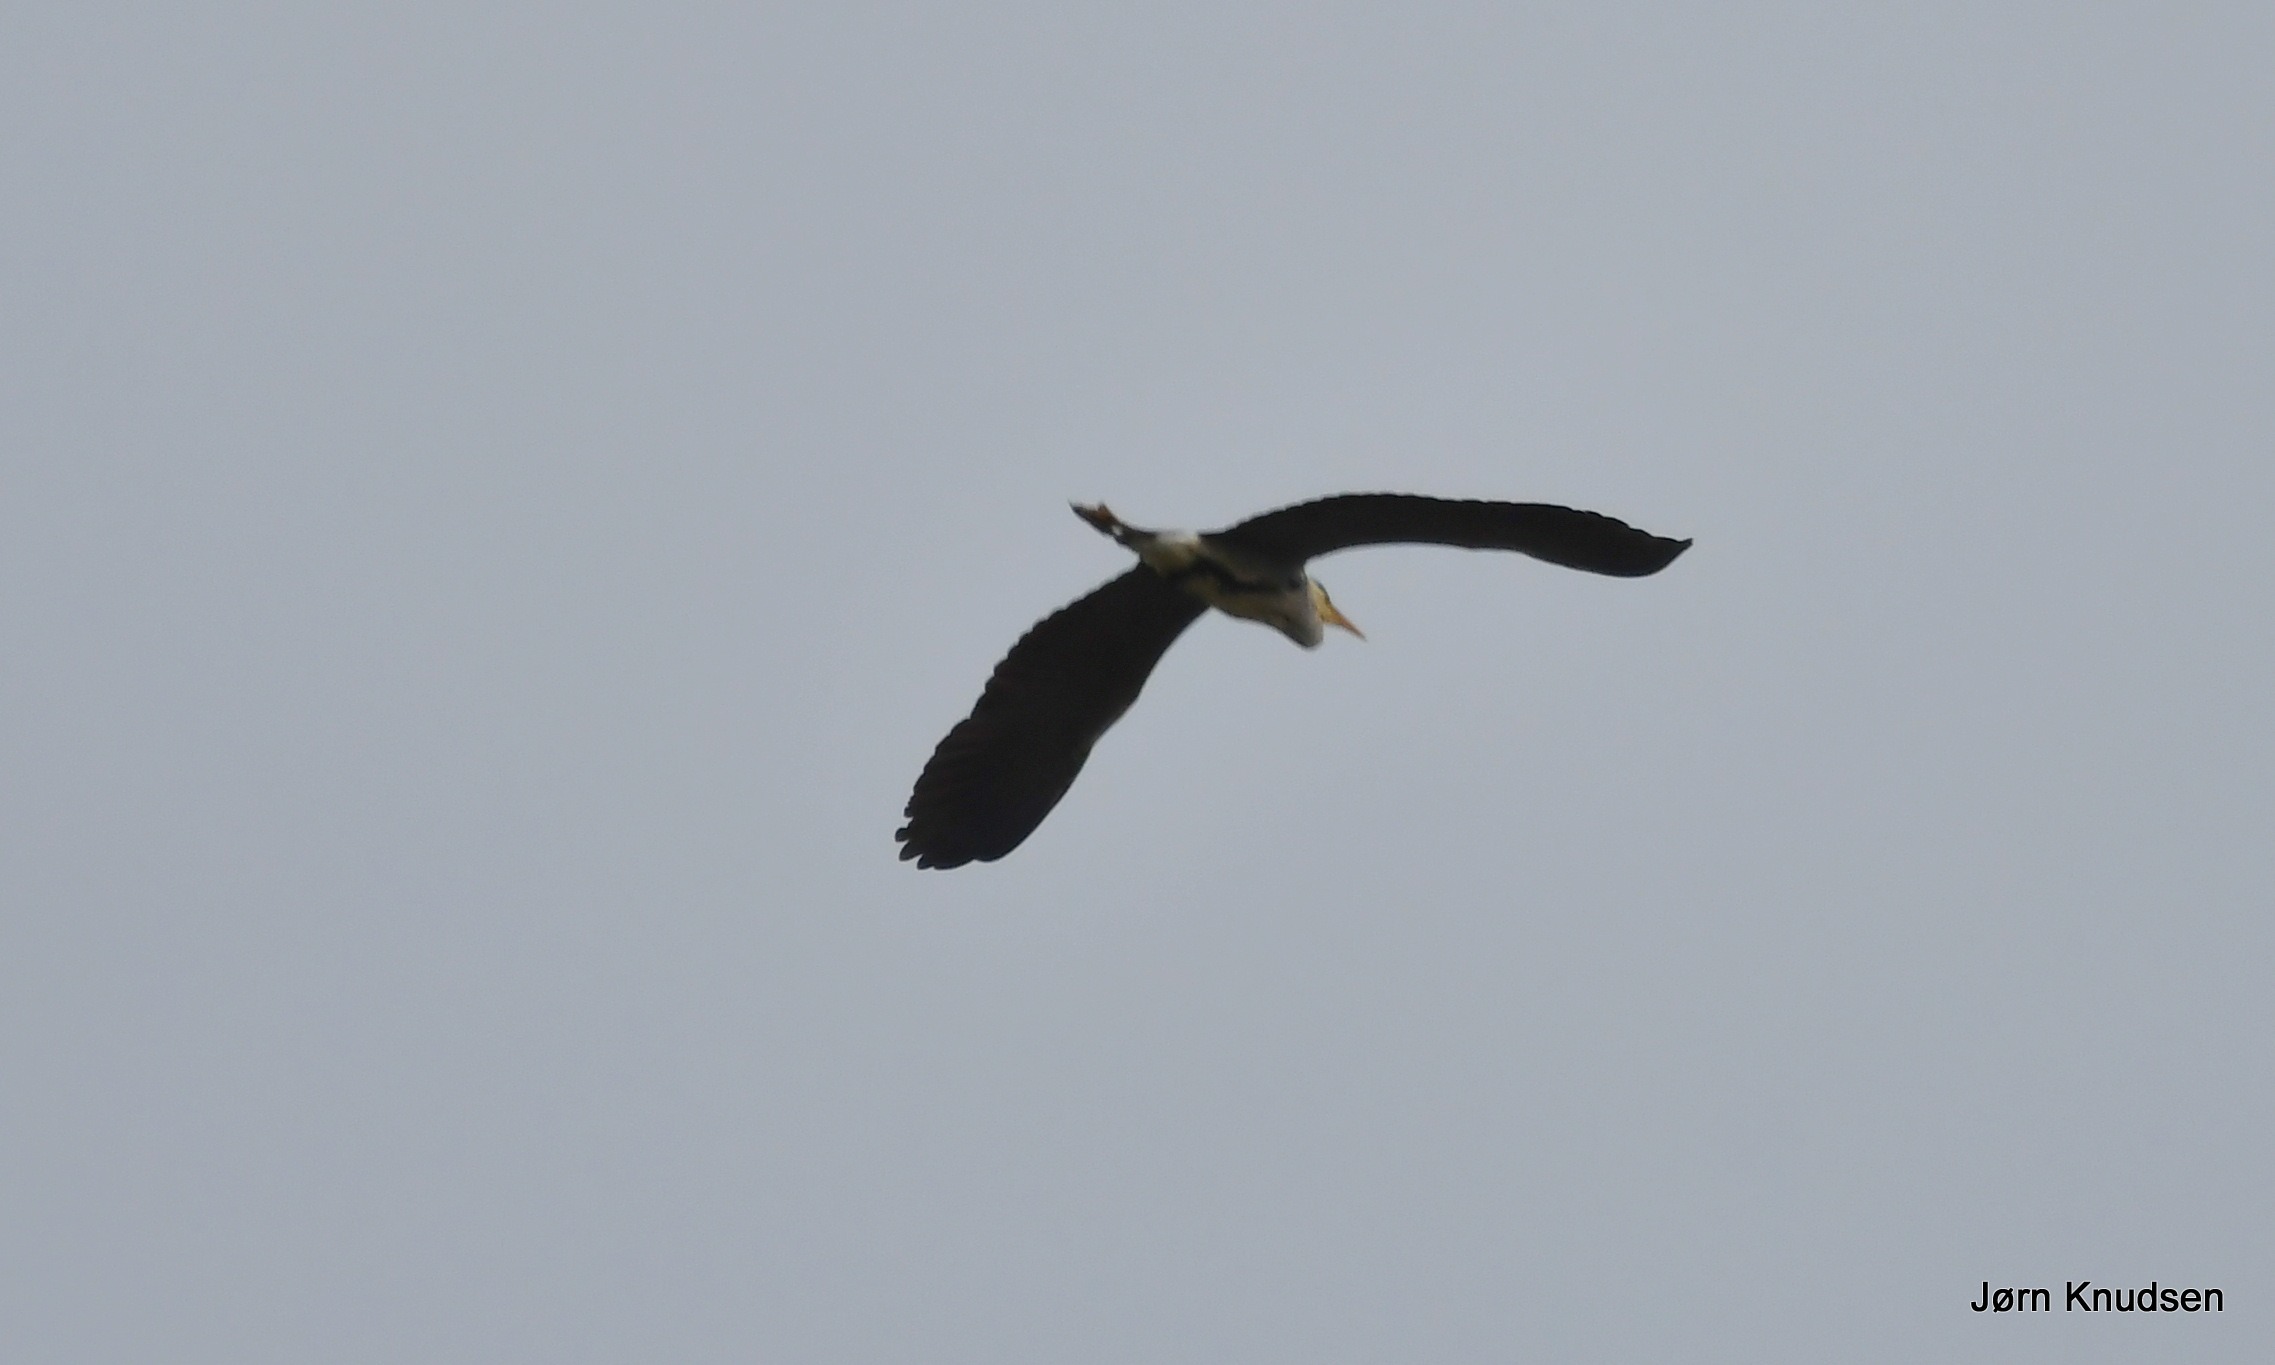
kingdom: Animalia
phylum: Chordata
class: Aves
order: Pelecaniformes
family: Ardeidae
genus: Ardea
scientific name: Ardea cinerea
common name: Fiskehejre
